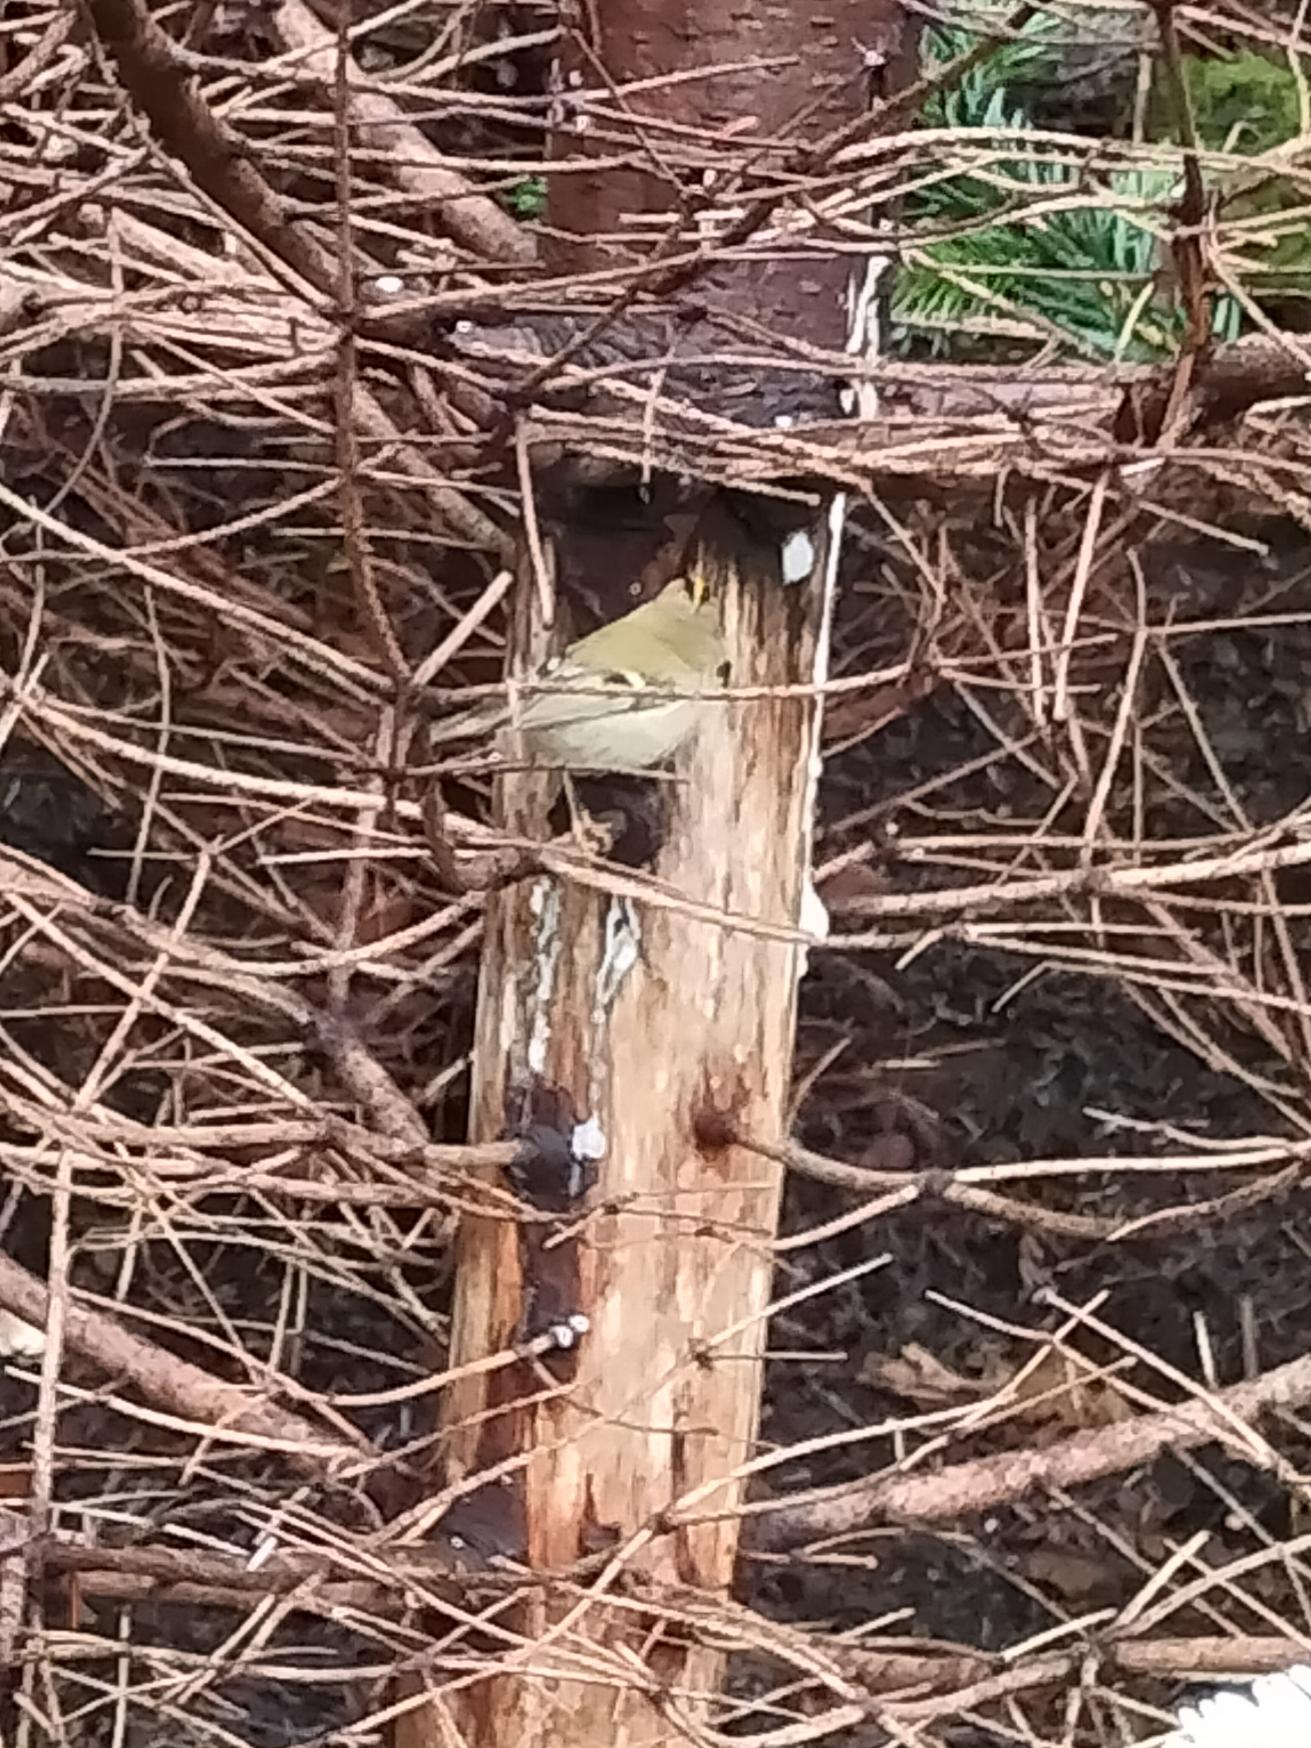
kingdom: Animalia
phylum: Chordata
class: Aves
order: Passeriformes
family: Regulidae
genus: Regulus
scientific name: Regulus regulus
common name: Fuglekonge
